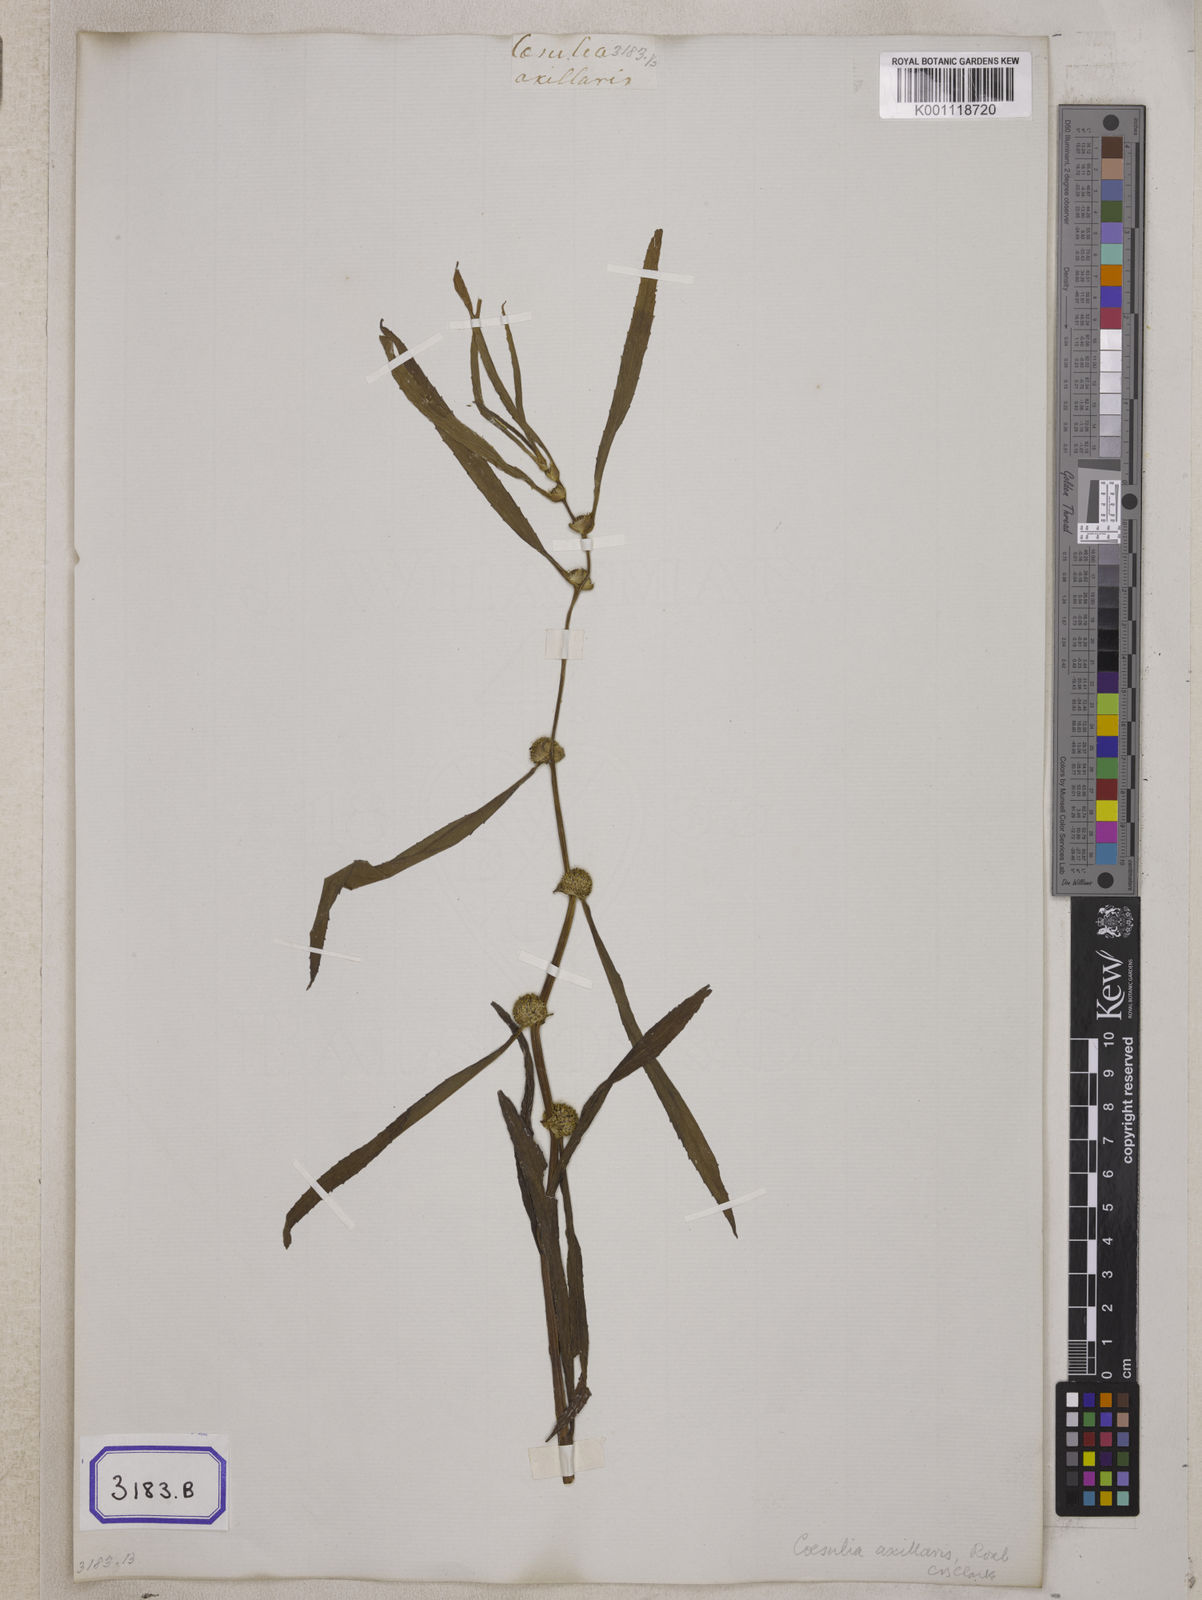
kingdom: Plantae
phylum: Tracheophyta
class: Magnoliopsida
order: Asterales
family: Asteraceae
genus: Caesulia
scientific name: Caesulia axillaris
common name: Pink node flower
